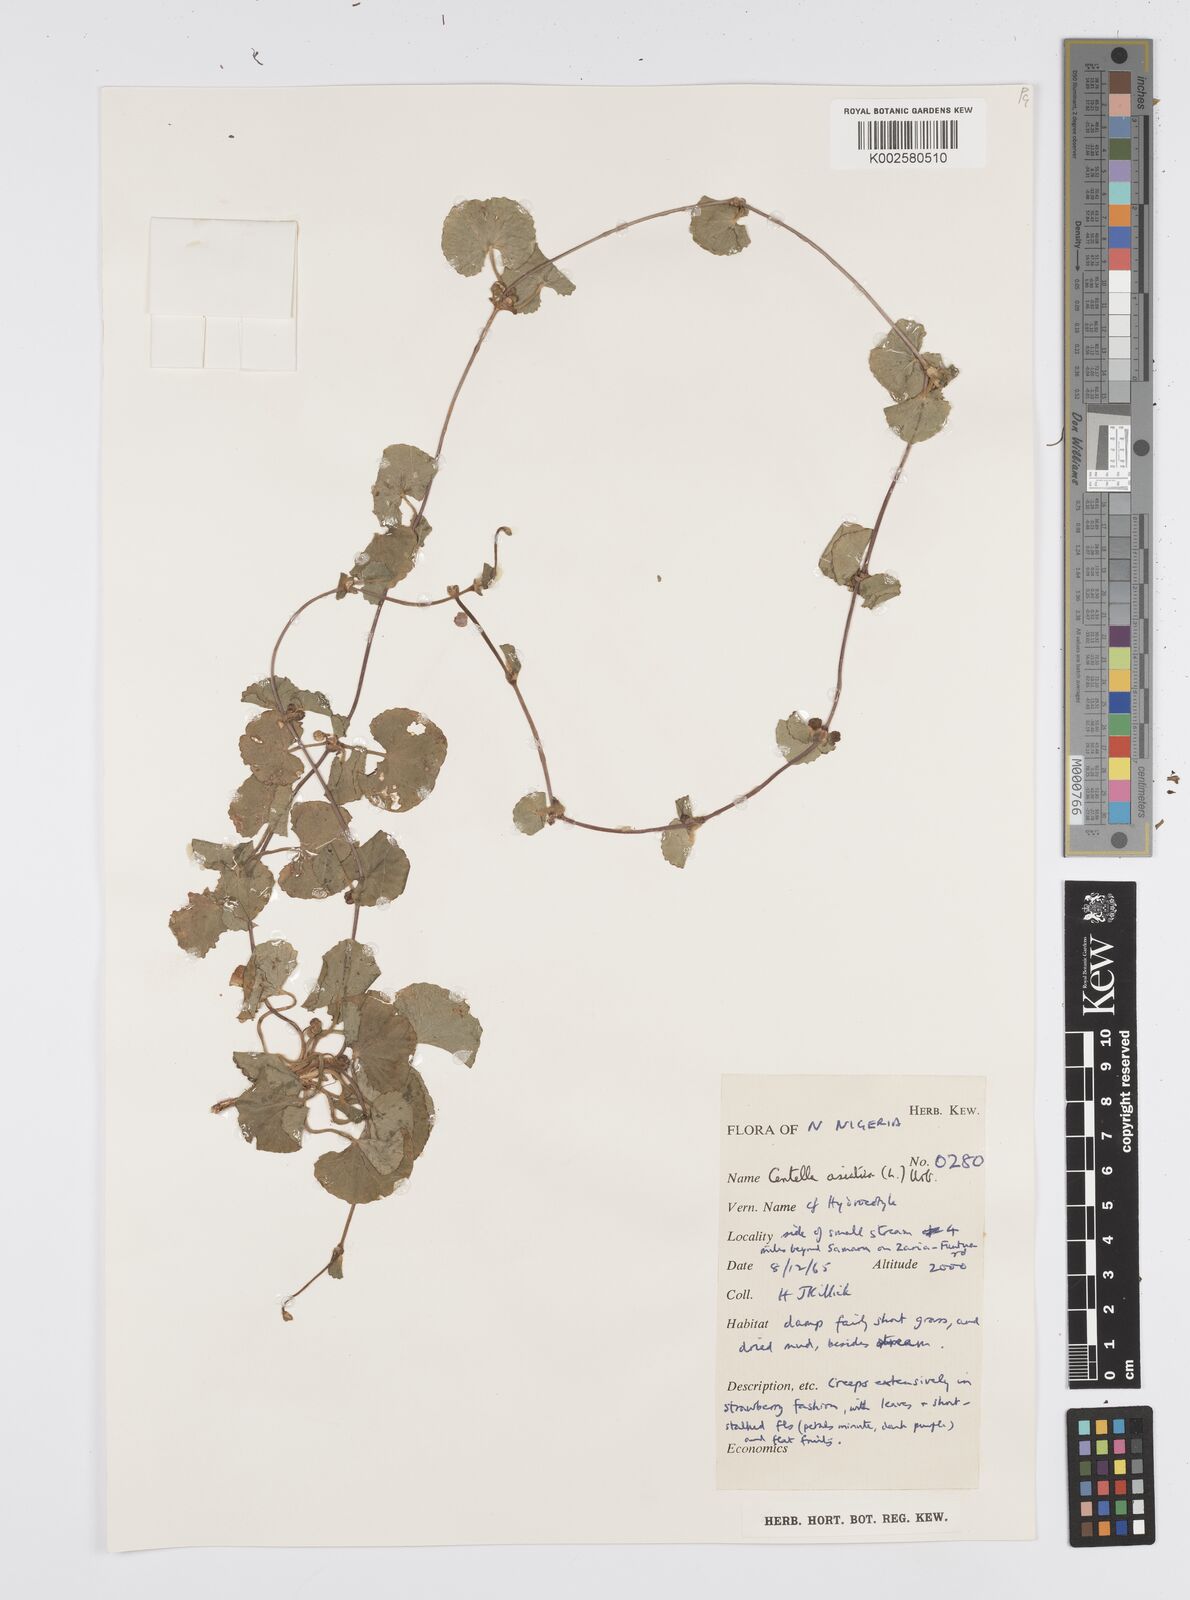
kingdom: Plantae
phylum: Tracheophyta
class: Magnoliopsida
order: Apiales
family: Apiaceae
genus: Centella
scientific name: Centella asiatica
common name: Spadeleaf
